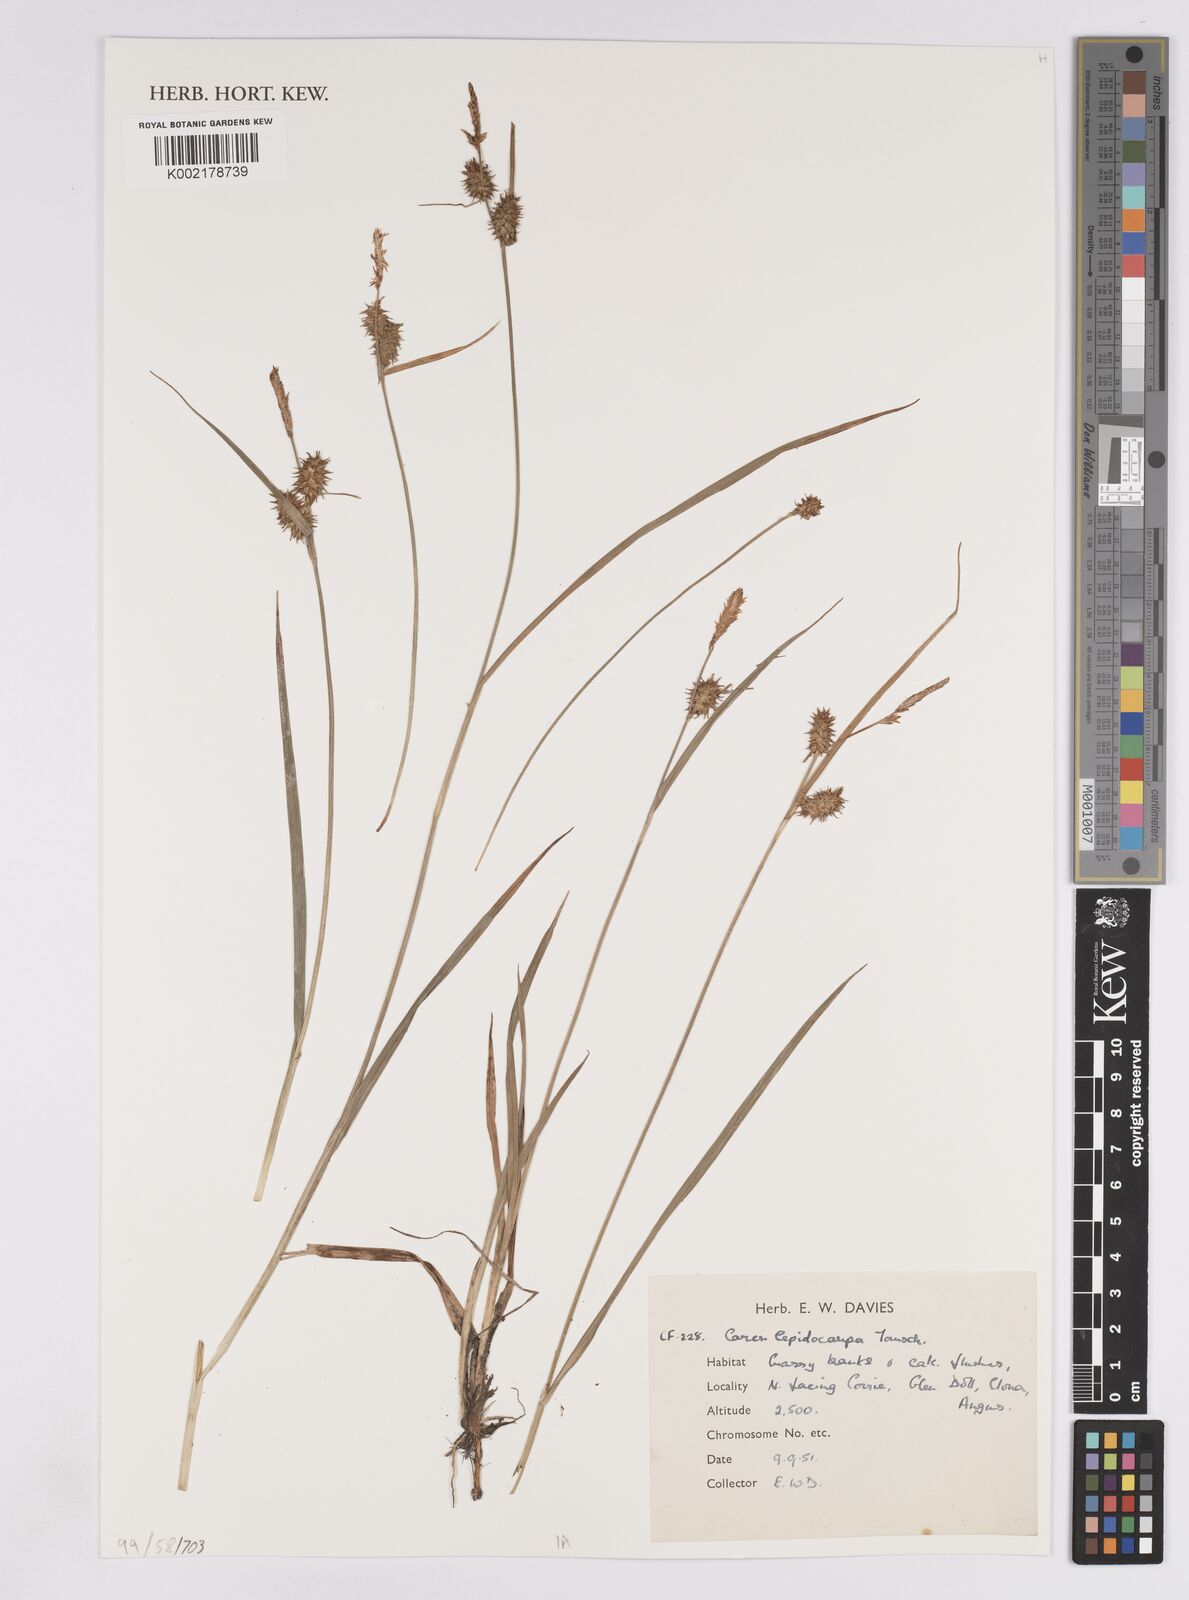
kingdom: Plantae
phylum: Tracheophyta
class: Liliopsida
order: Poales
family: Cyperaceae
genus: Carex
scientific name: Carex lepidocarpa
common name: Long-stalked yellow-sedge
